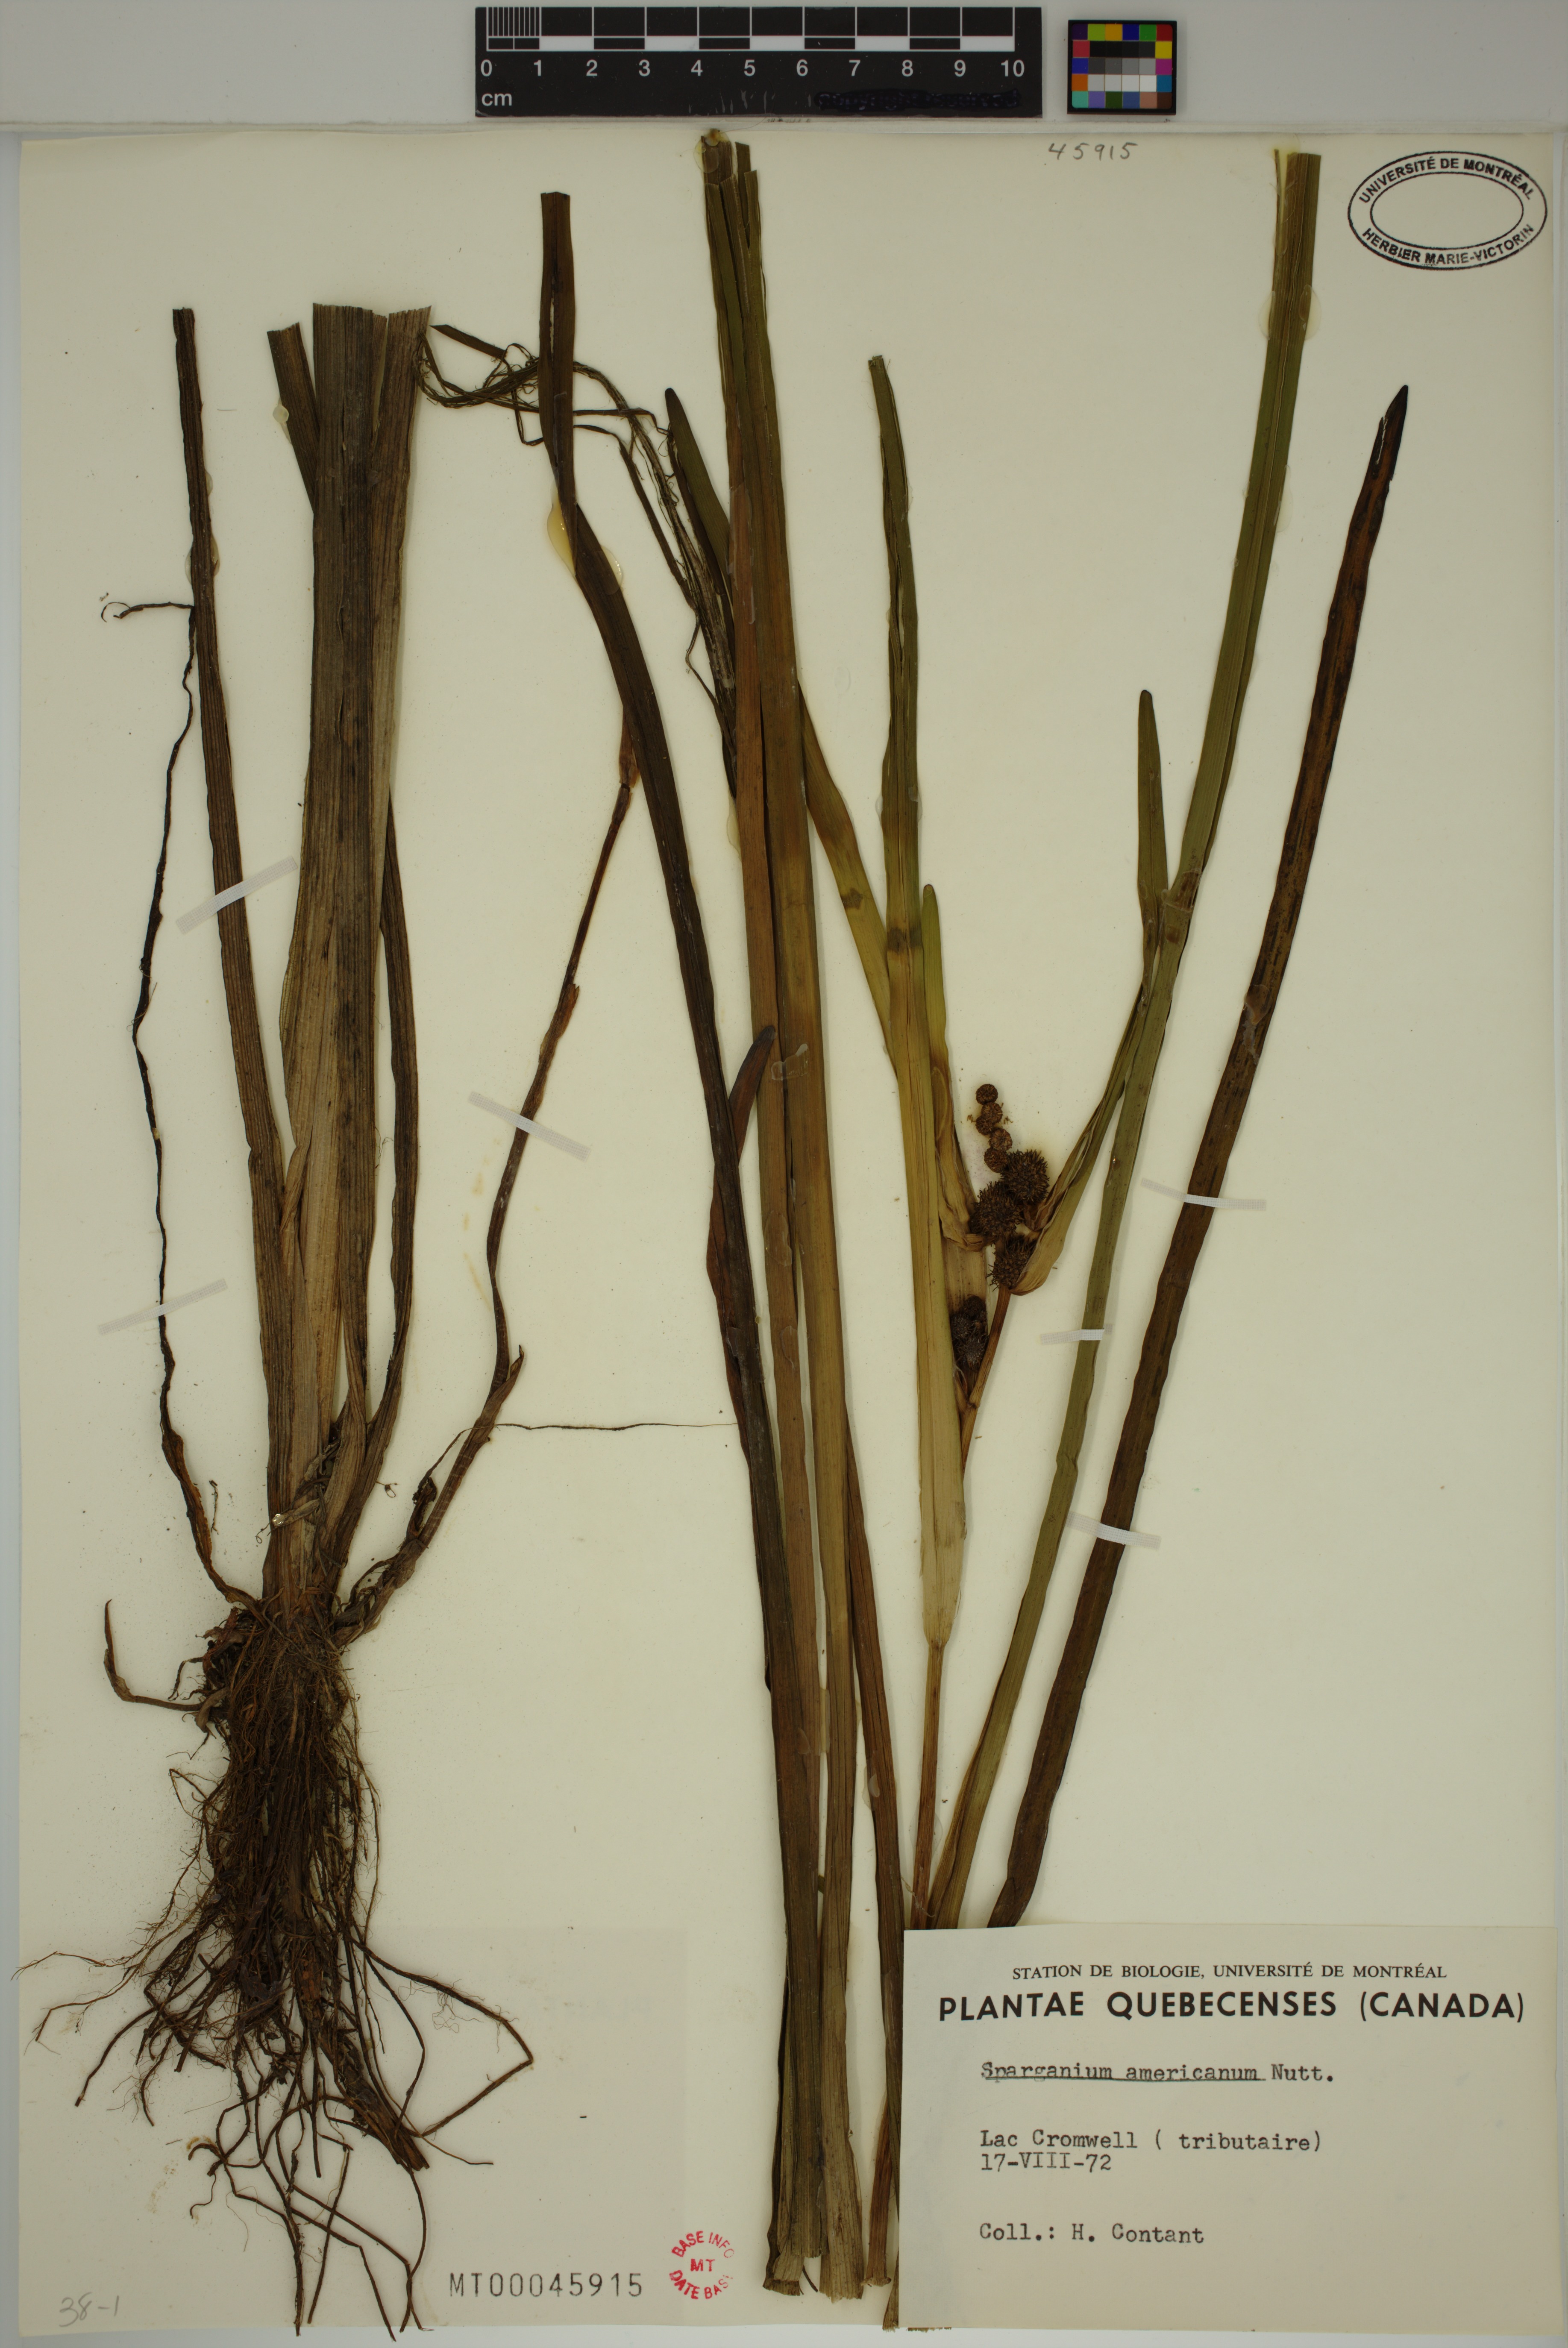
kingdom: Plantae
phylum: Tracheophyta
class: Liliopsida
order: Poales
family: Typhaceae
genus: Sparganium
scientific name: Sparganium americanum
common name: American burreed
